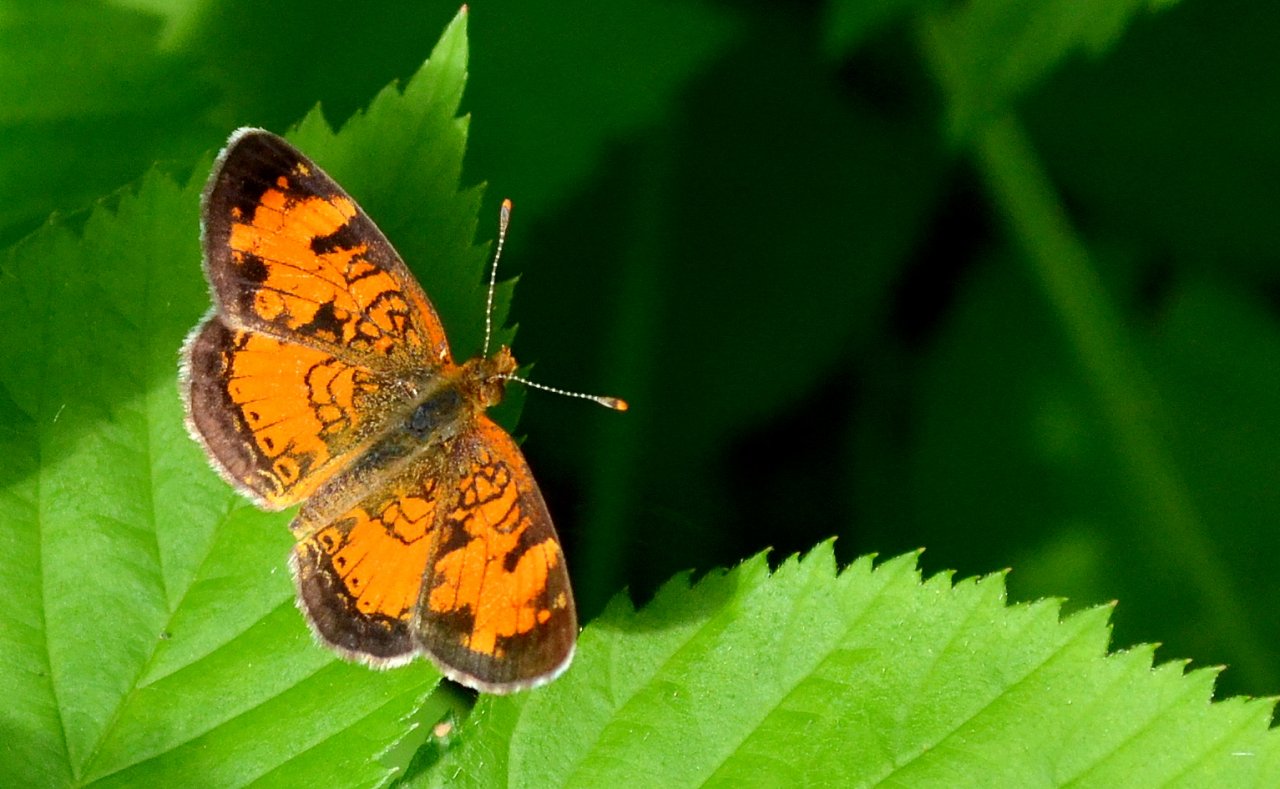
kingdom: Animalia
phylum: Arthropoda
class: Insecta
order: Lepidoptera
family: Nymphalidae
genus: Phyciodes
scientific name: Phyciodes tharos
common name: Northern Crescent
